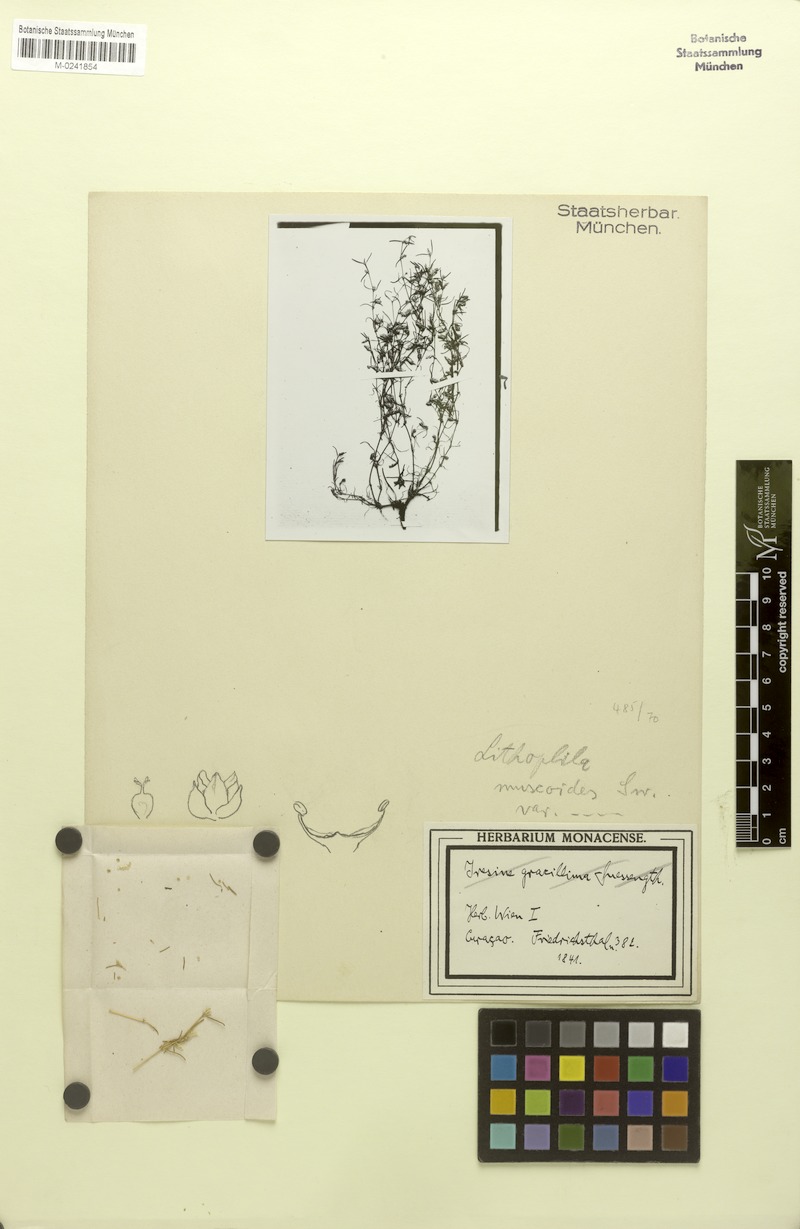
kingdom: Plantae
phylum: Tracheophyta
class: Magnoliopsida
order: Caryophyllales
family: Amaranthaceae
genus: Gomphrena
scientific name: Gomphrena muscoides
